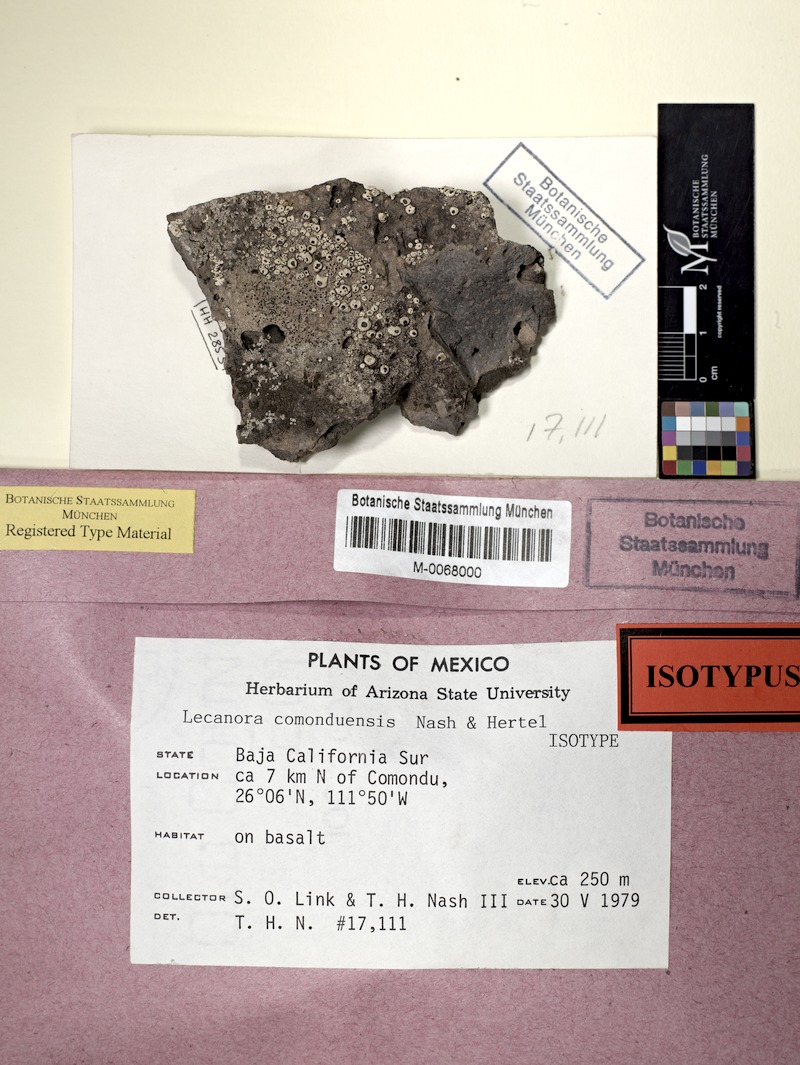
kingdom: Fungi
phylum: Ascomycota
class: Lecanoromycetes
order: Lecanorales
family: Lecanoraceae
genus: Lecanora
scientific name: Lecanora comoduensis
